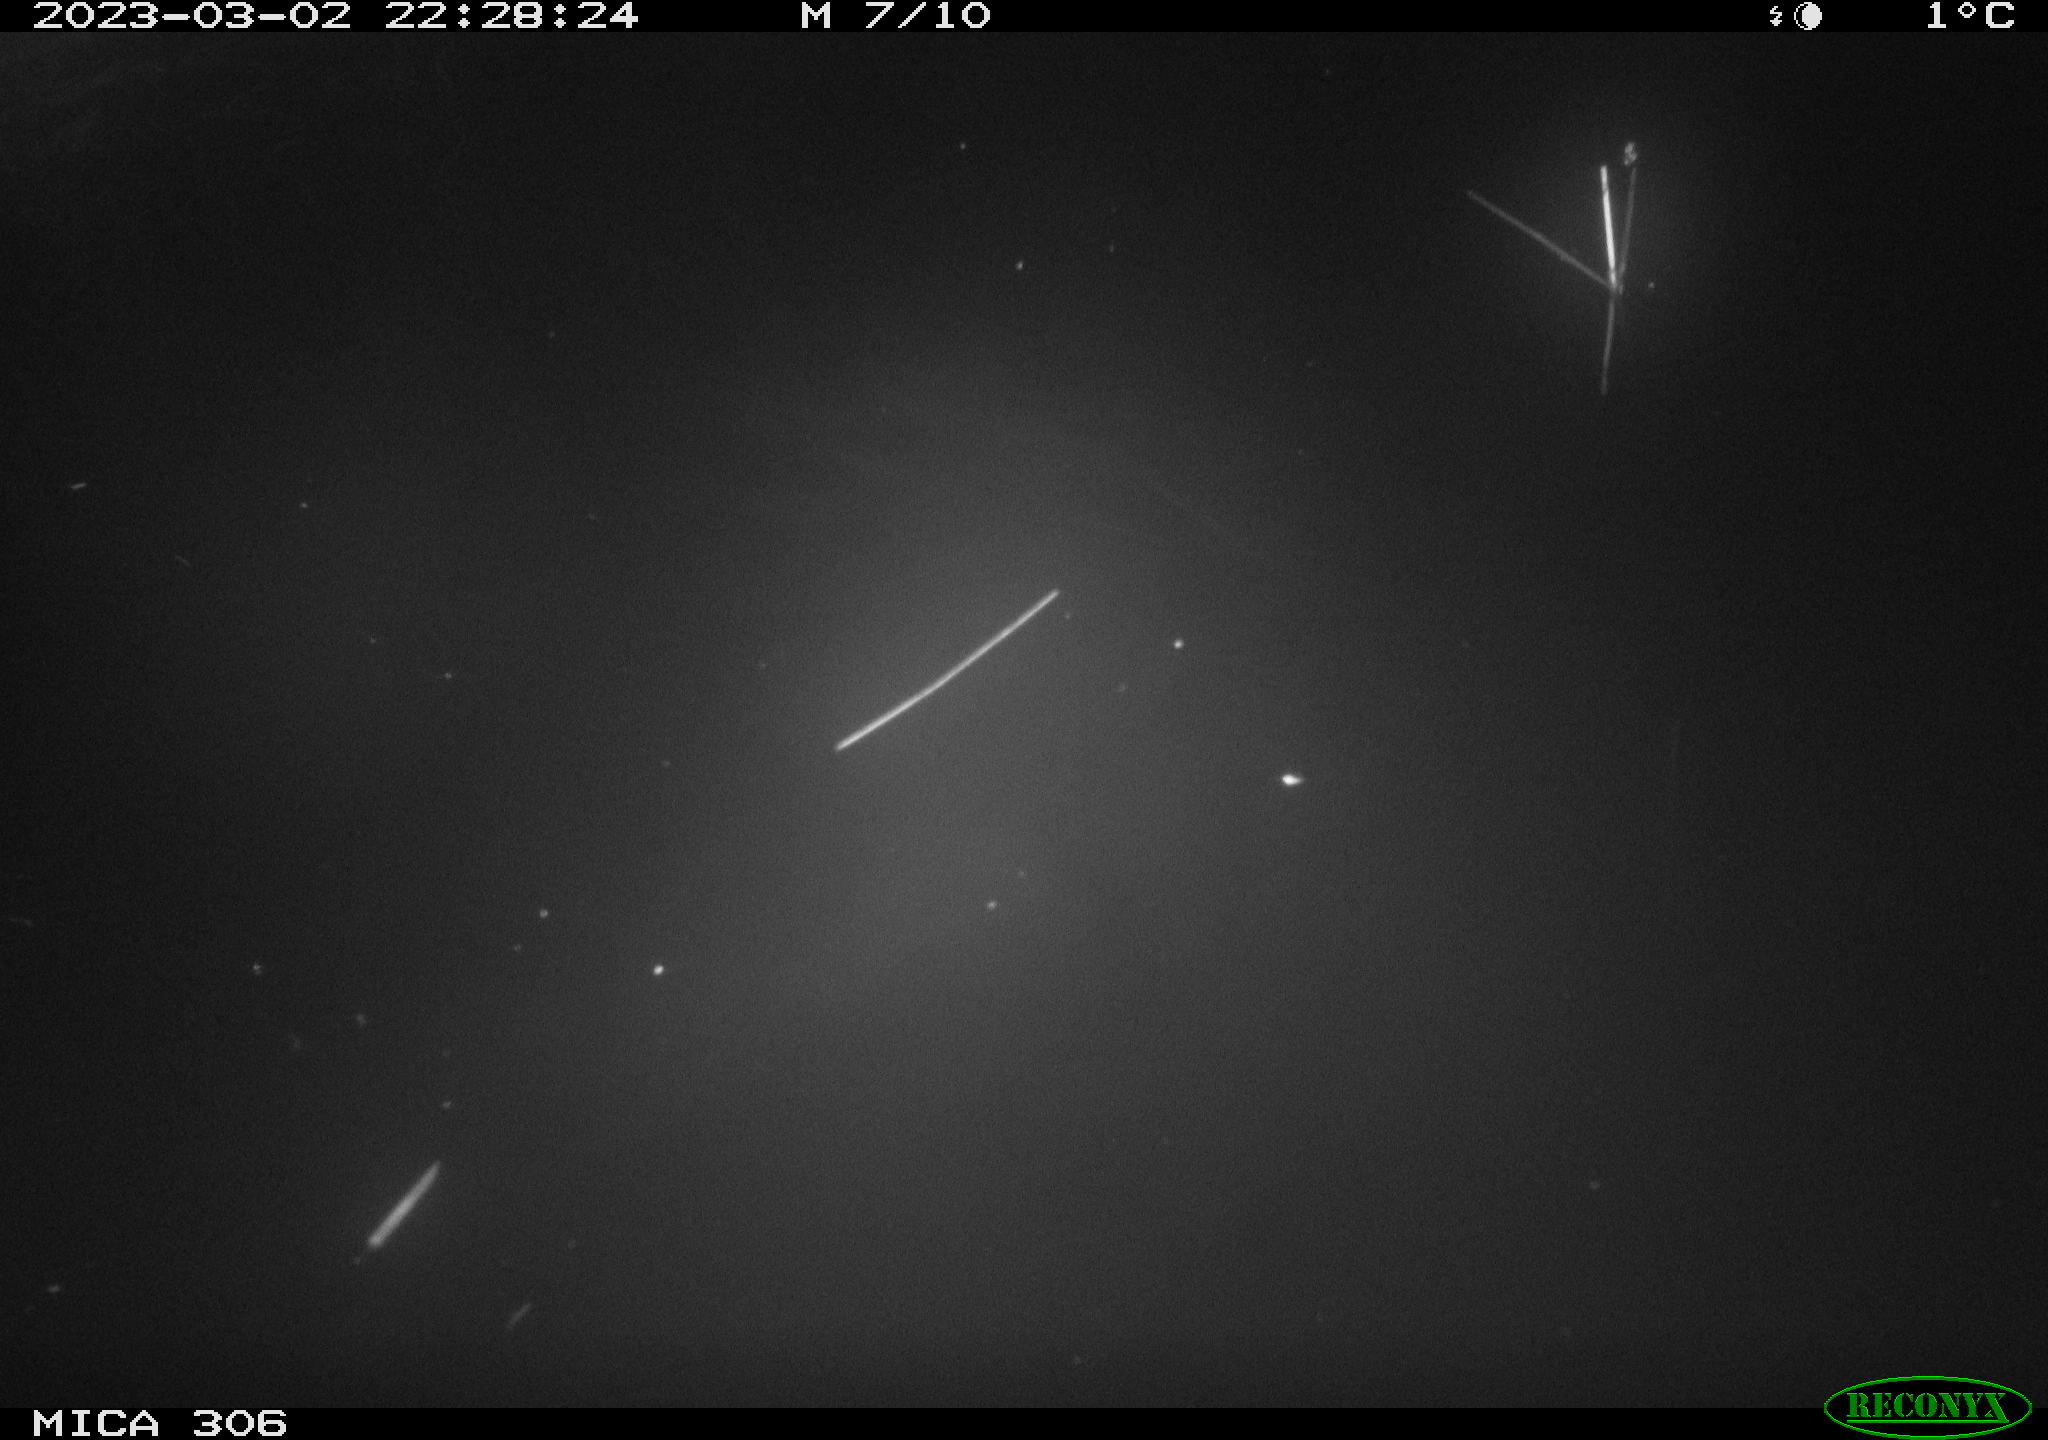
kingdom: Animalia
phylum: Chordata
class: Mammalia
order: Rodentia
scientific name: Rodentia
